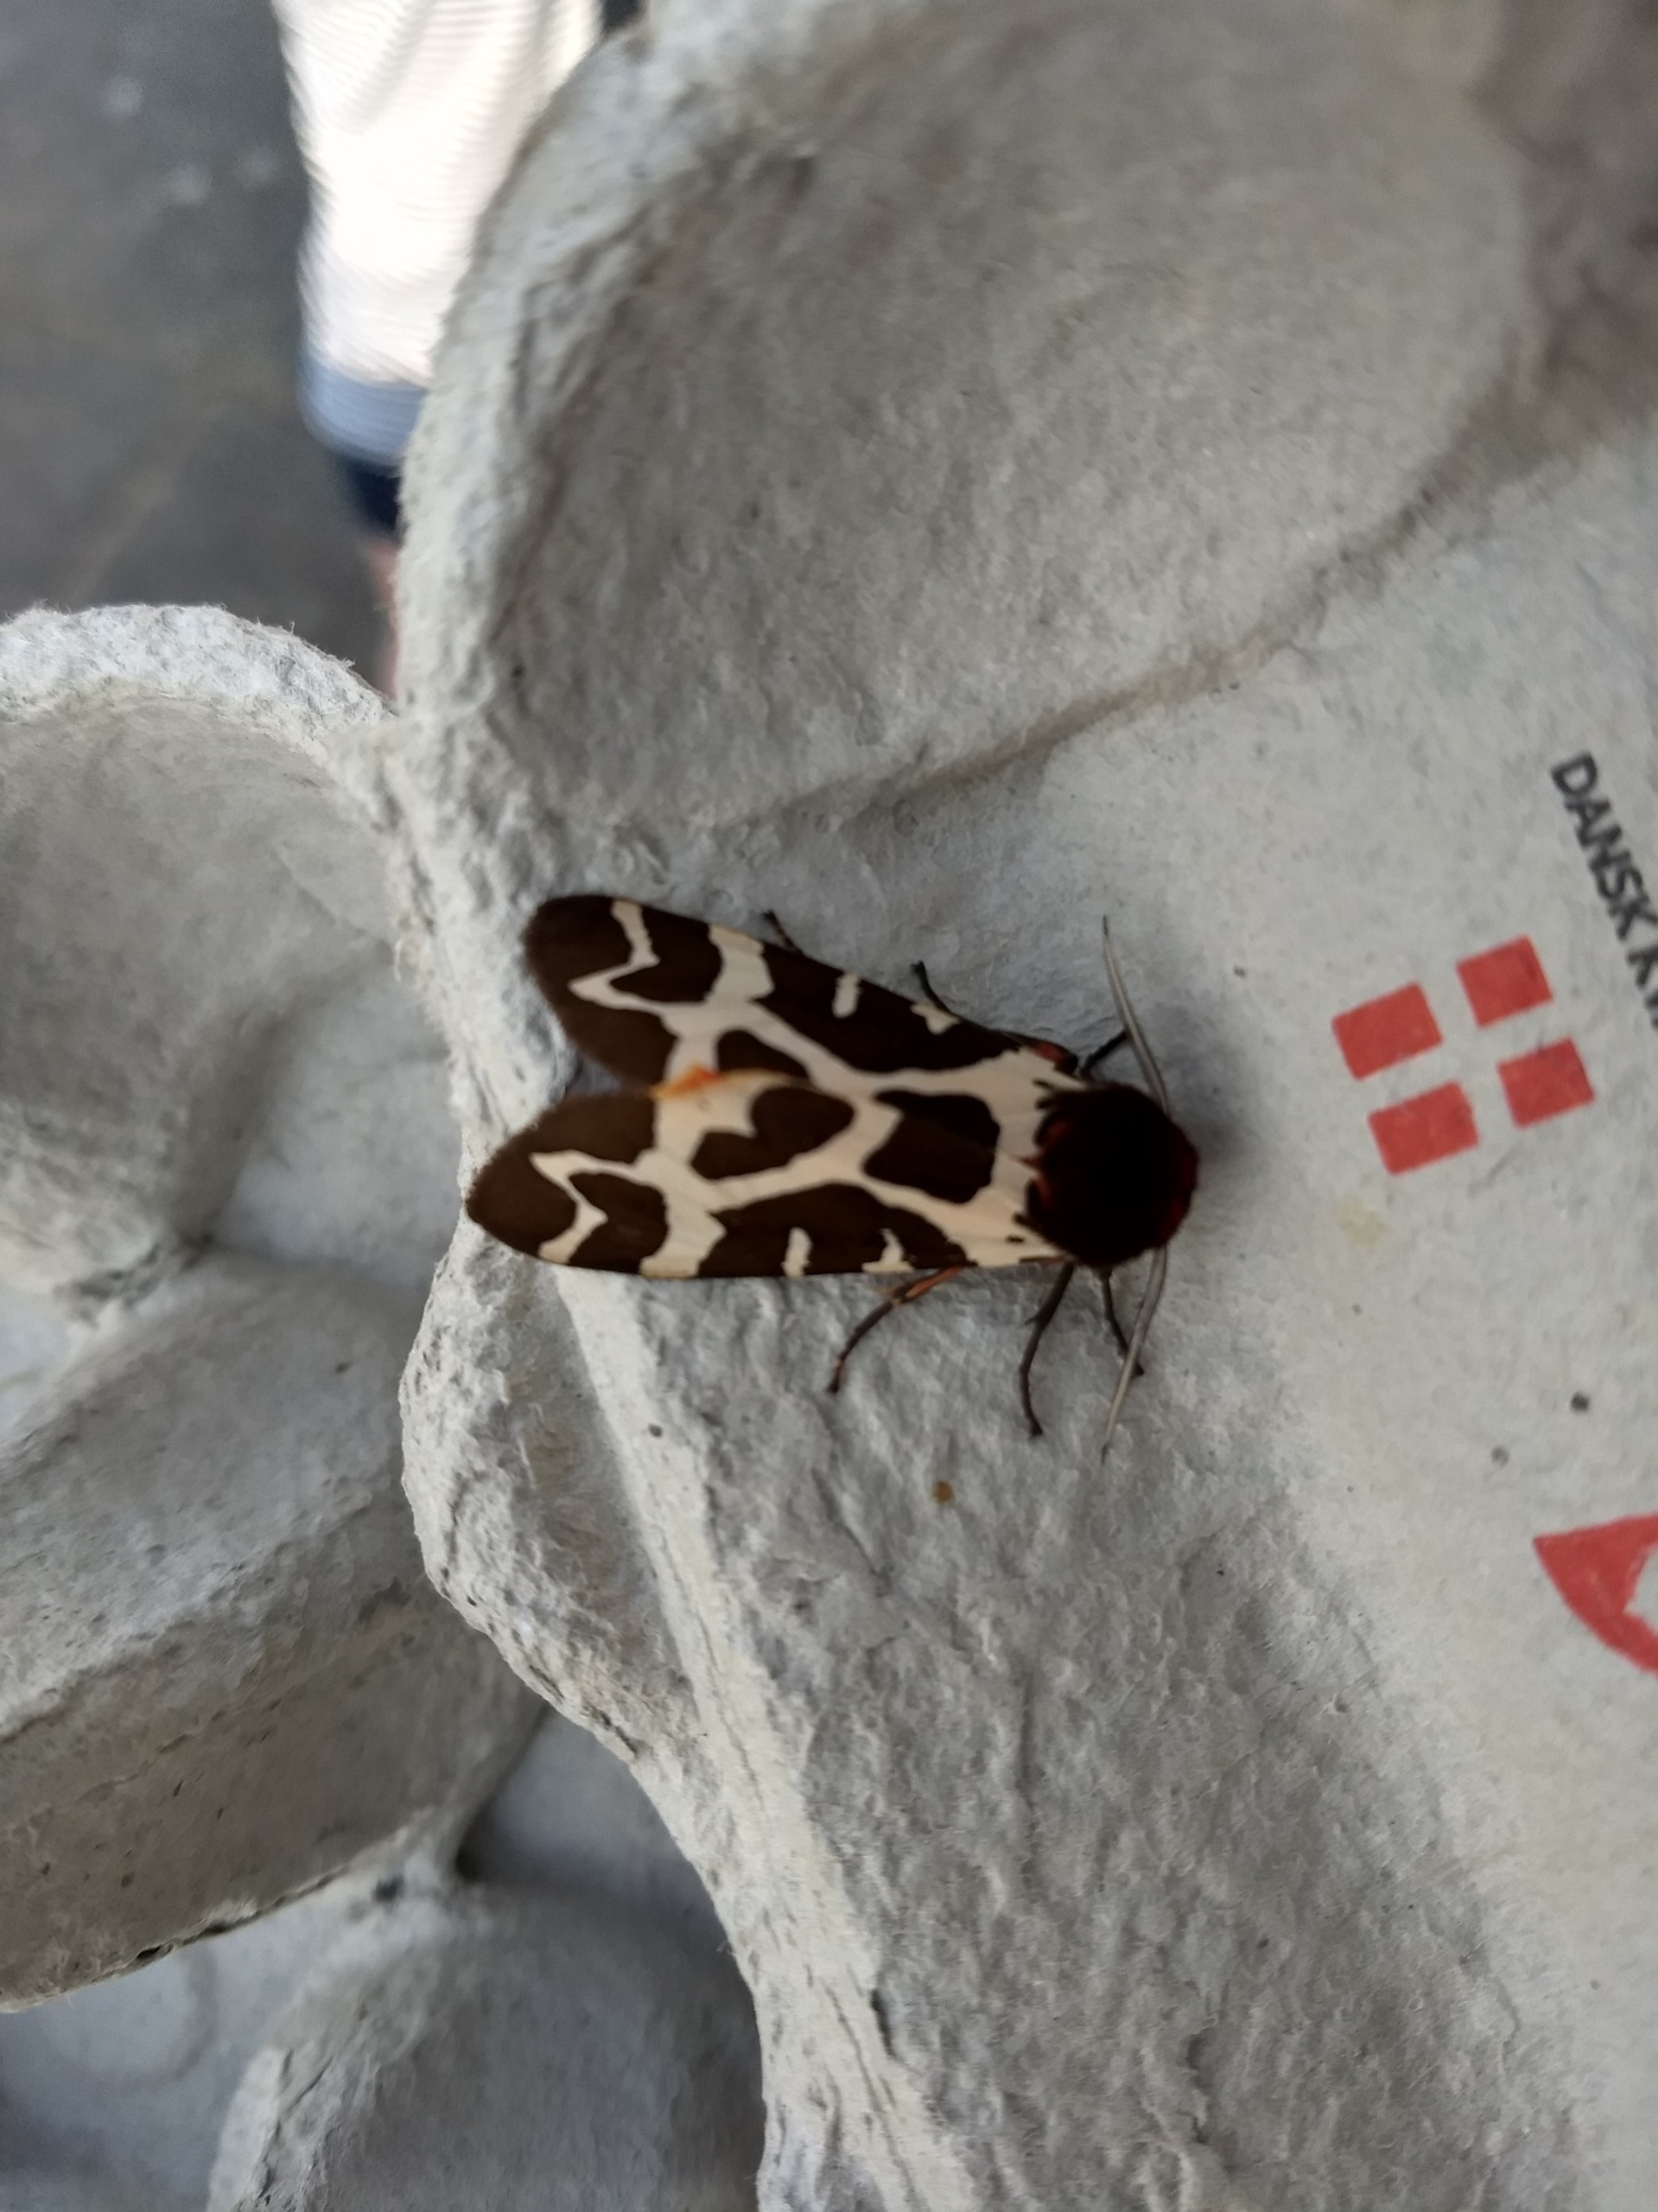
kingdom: Animalia
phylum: Arthropoda
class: Insecta
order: Lepidoptera
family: Erebidae
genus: Arctia
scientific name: Arctia caja
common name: Brun bjørn
